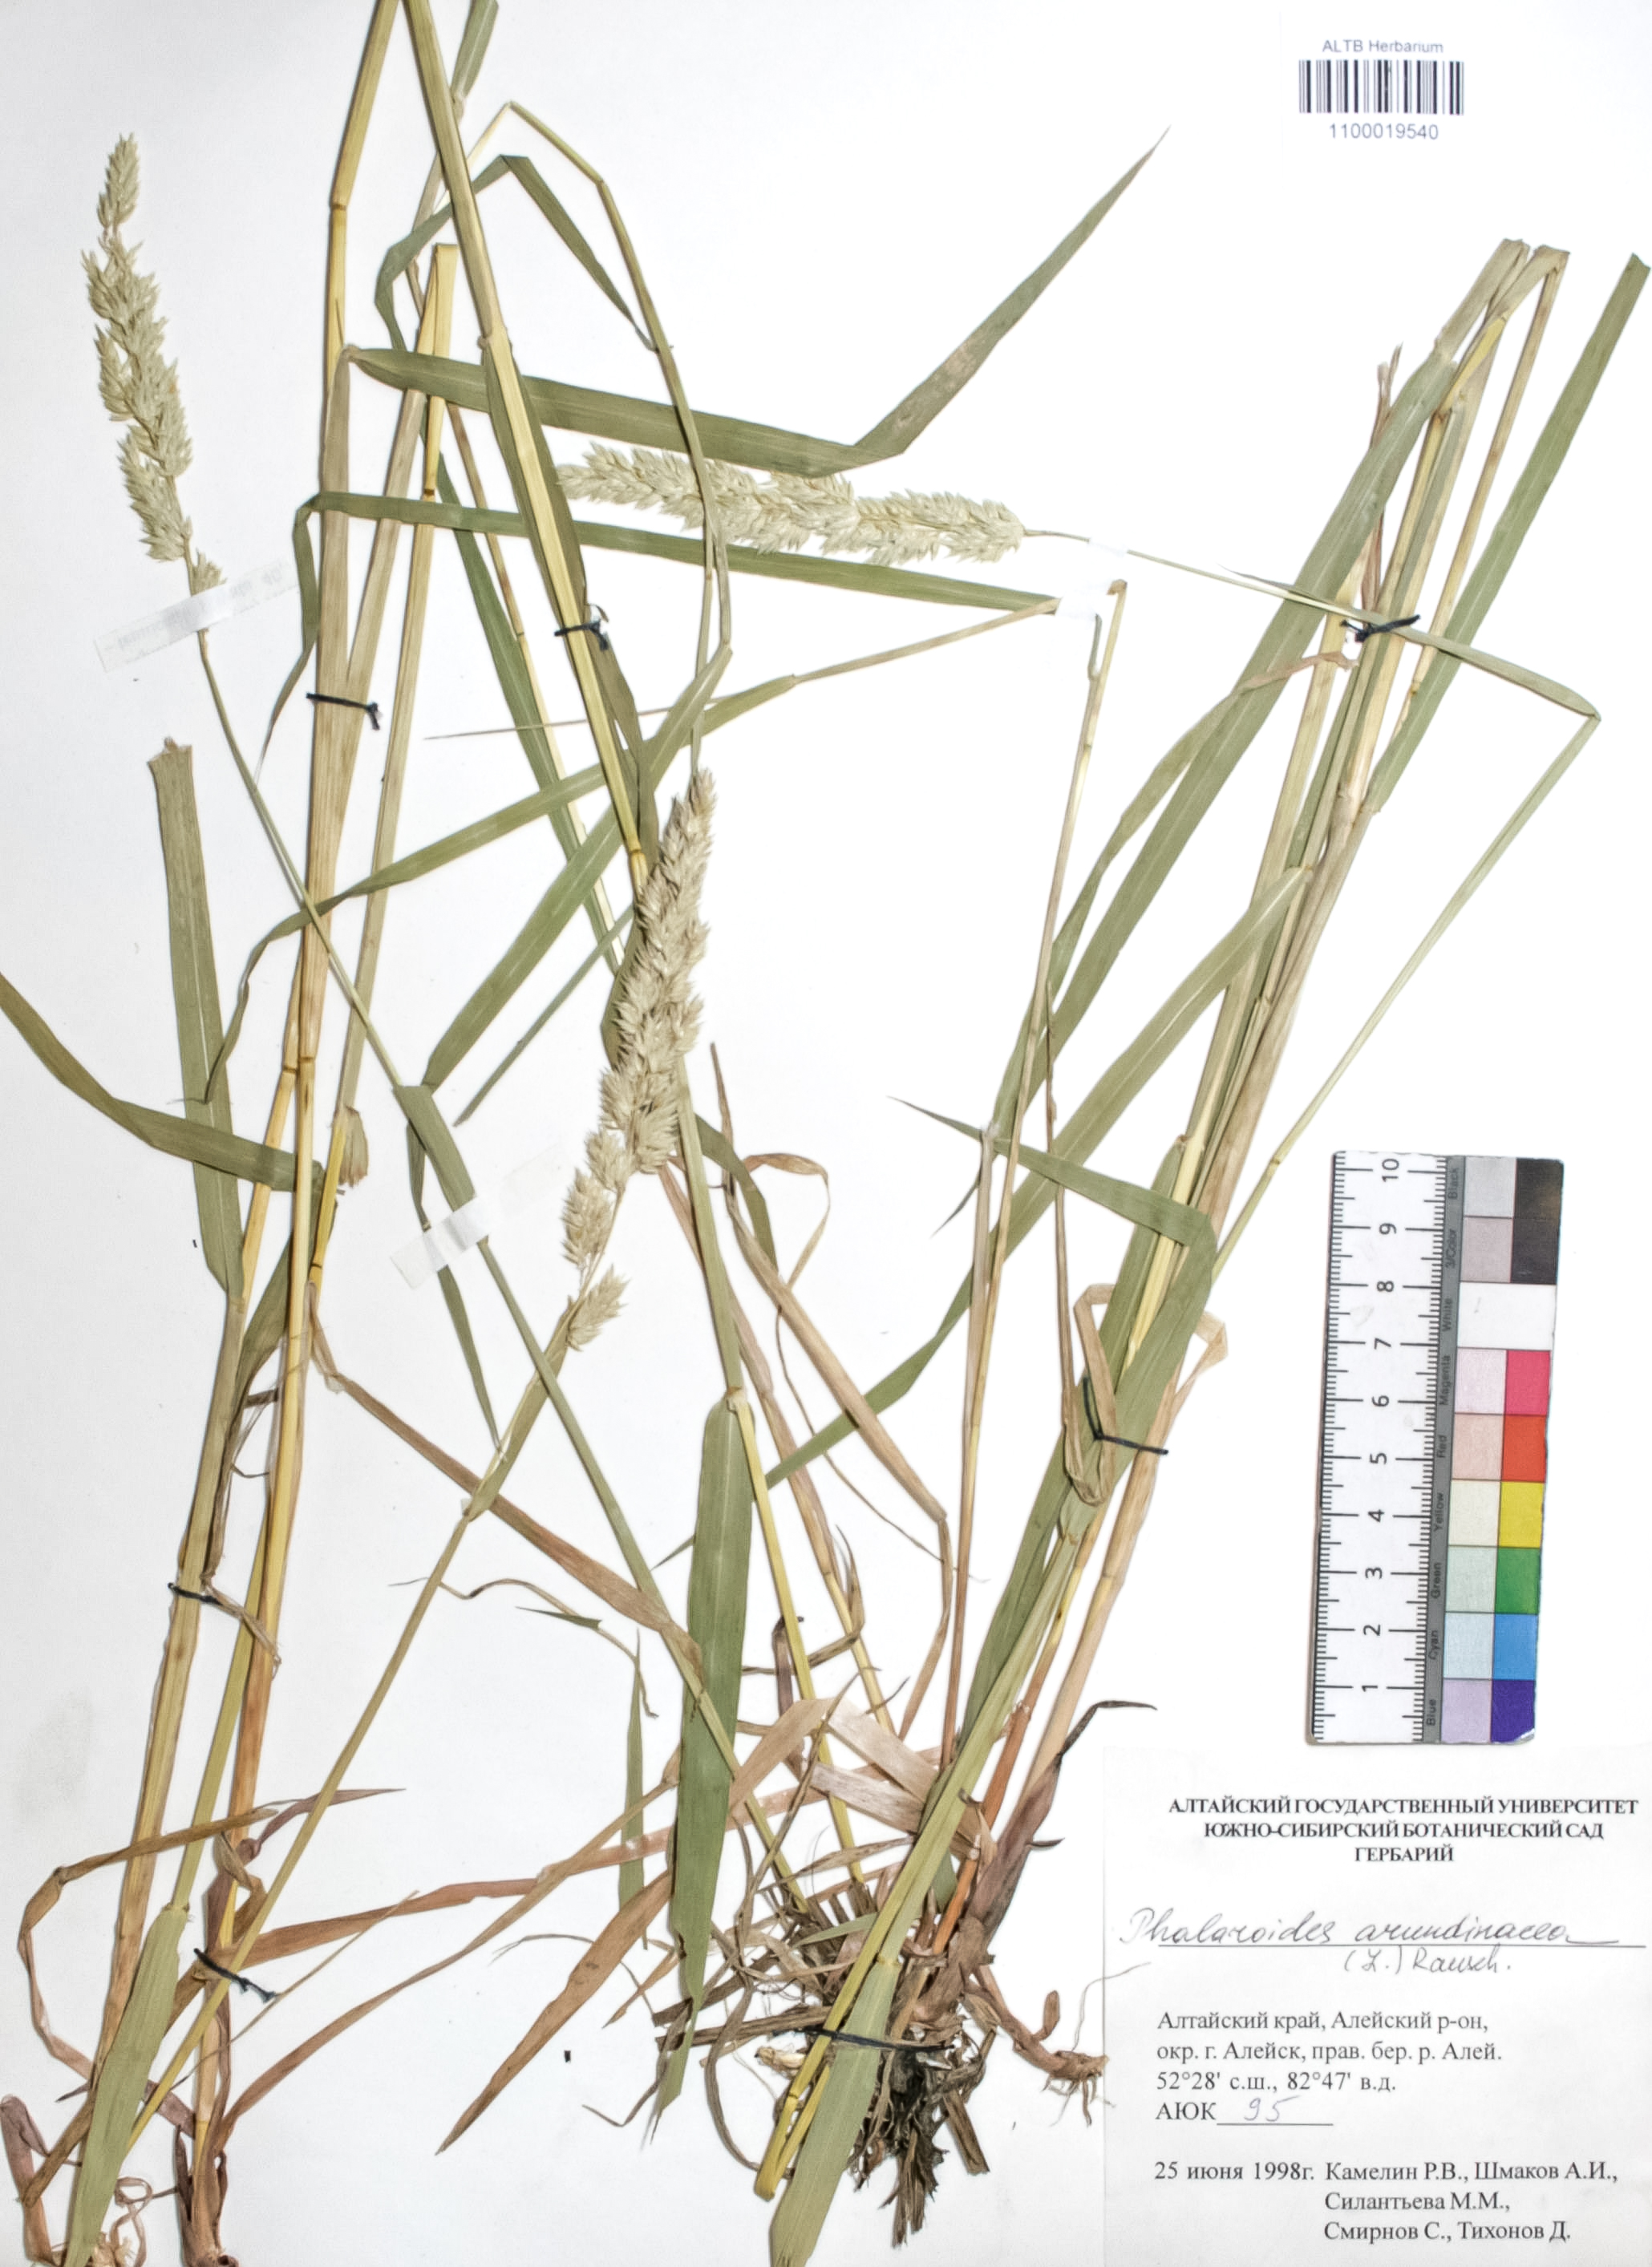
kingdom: Plantae
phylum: Tracheophyta
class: Liliopsida
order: Poales
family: Poaceae
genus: Phalaris
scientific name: Phalaris arundinacea
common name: Reed canary-grass
